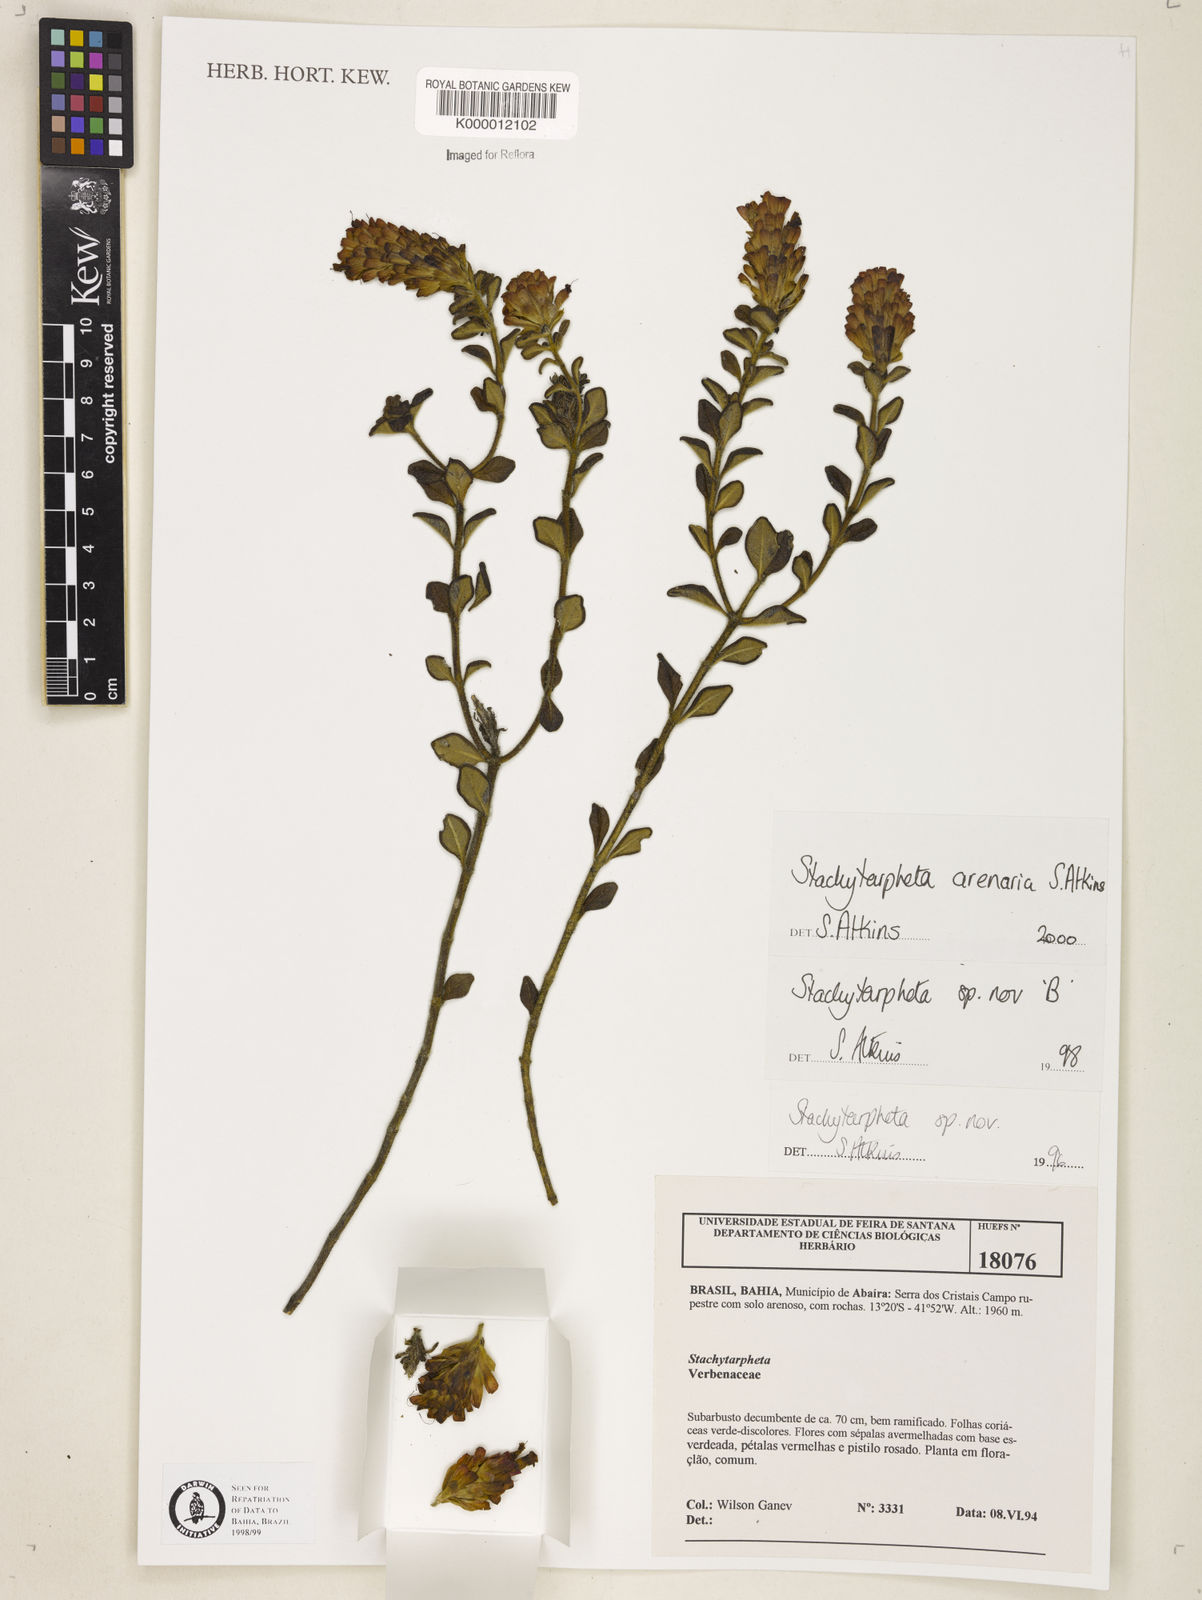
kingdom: Plantae
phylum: Tracheophyta
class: Magnoliopsida
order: Lamiales
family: Verbenaceae
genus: Stachytarpheta
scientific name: Stachytarpheta arenaria
